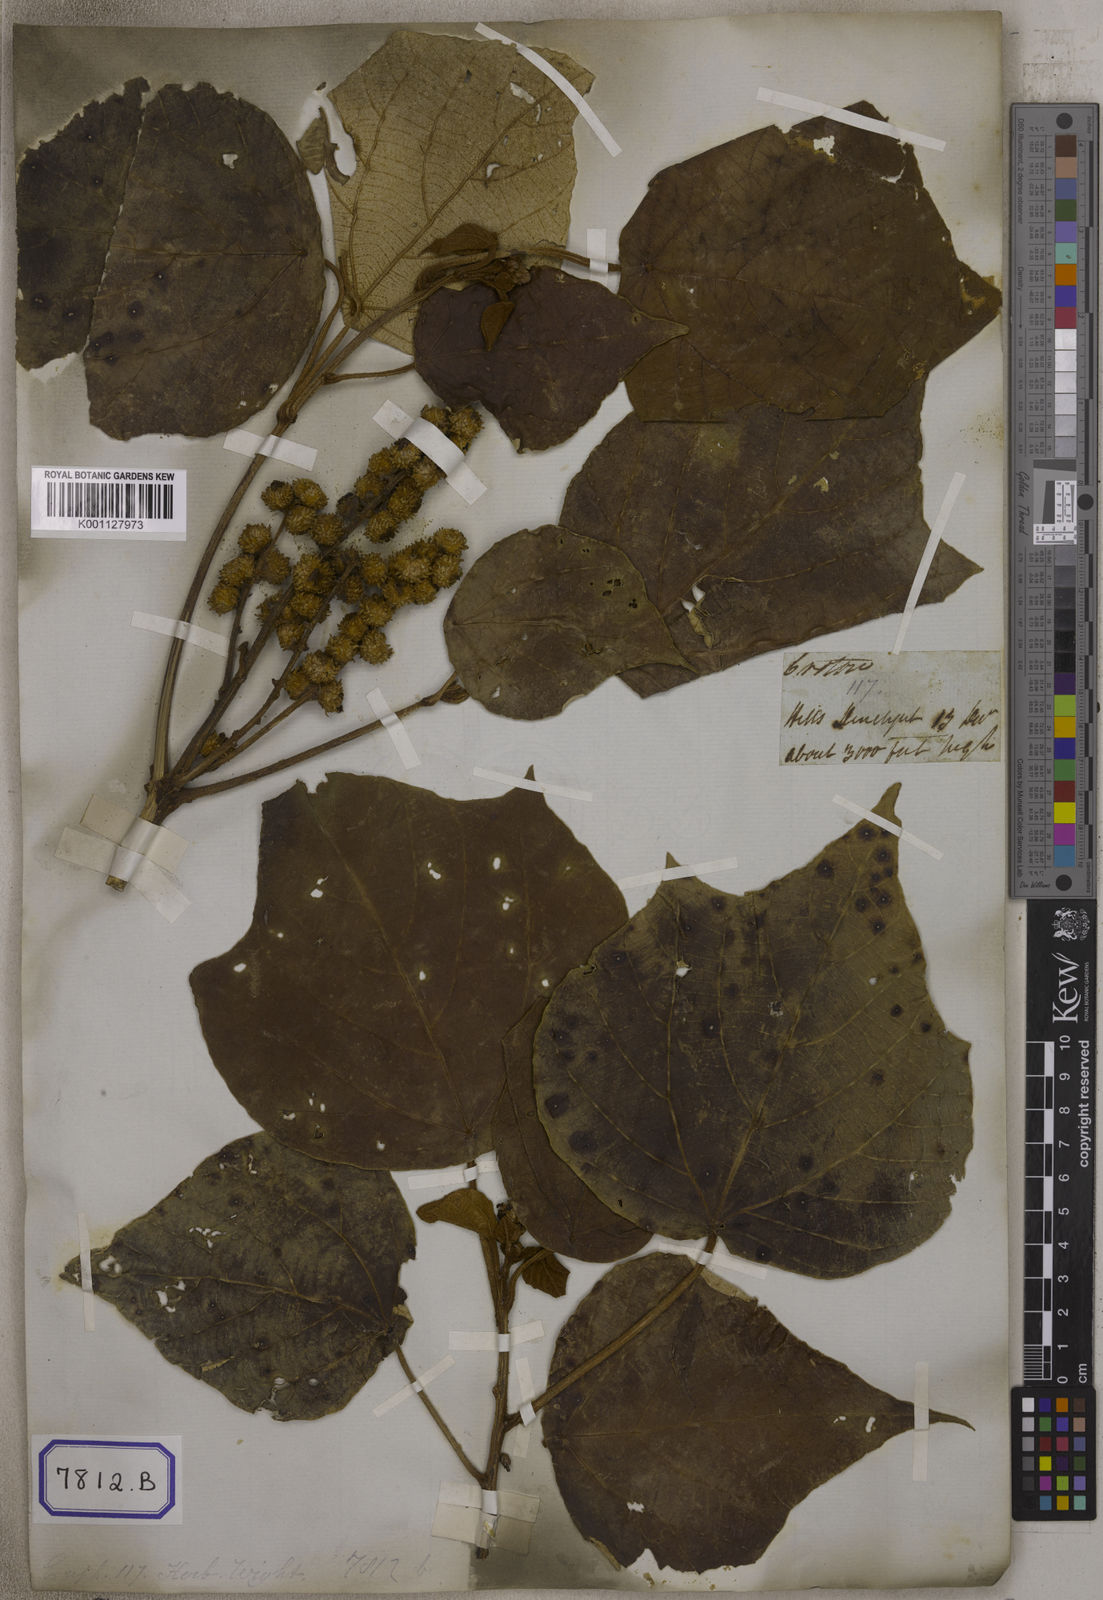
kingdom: Plantae
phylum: Tracheophyta
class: Magnoliopsida
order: Malpighiales
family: Euphorbiaceae
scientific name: Euphorbiaceae
